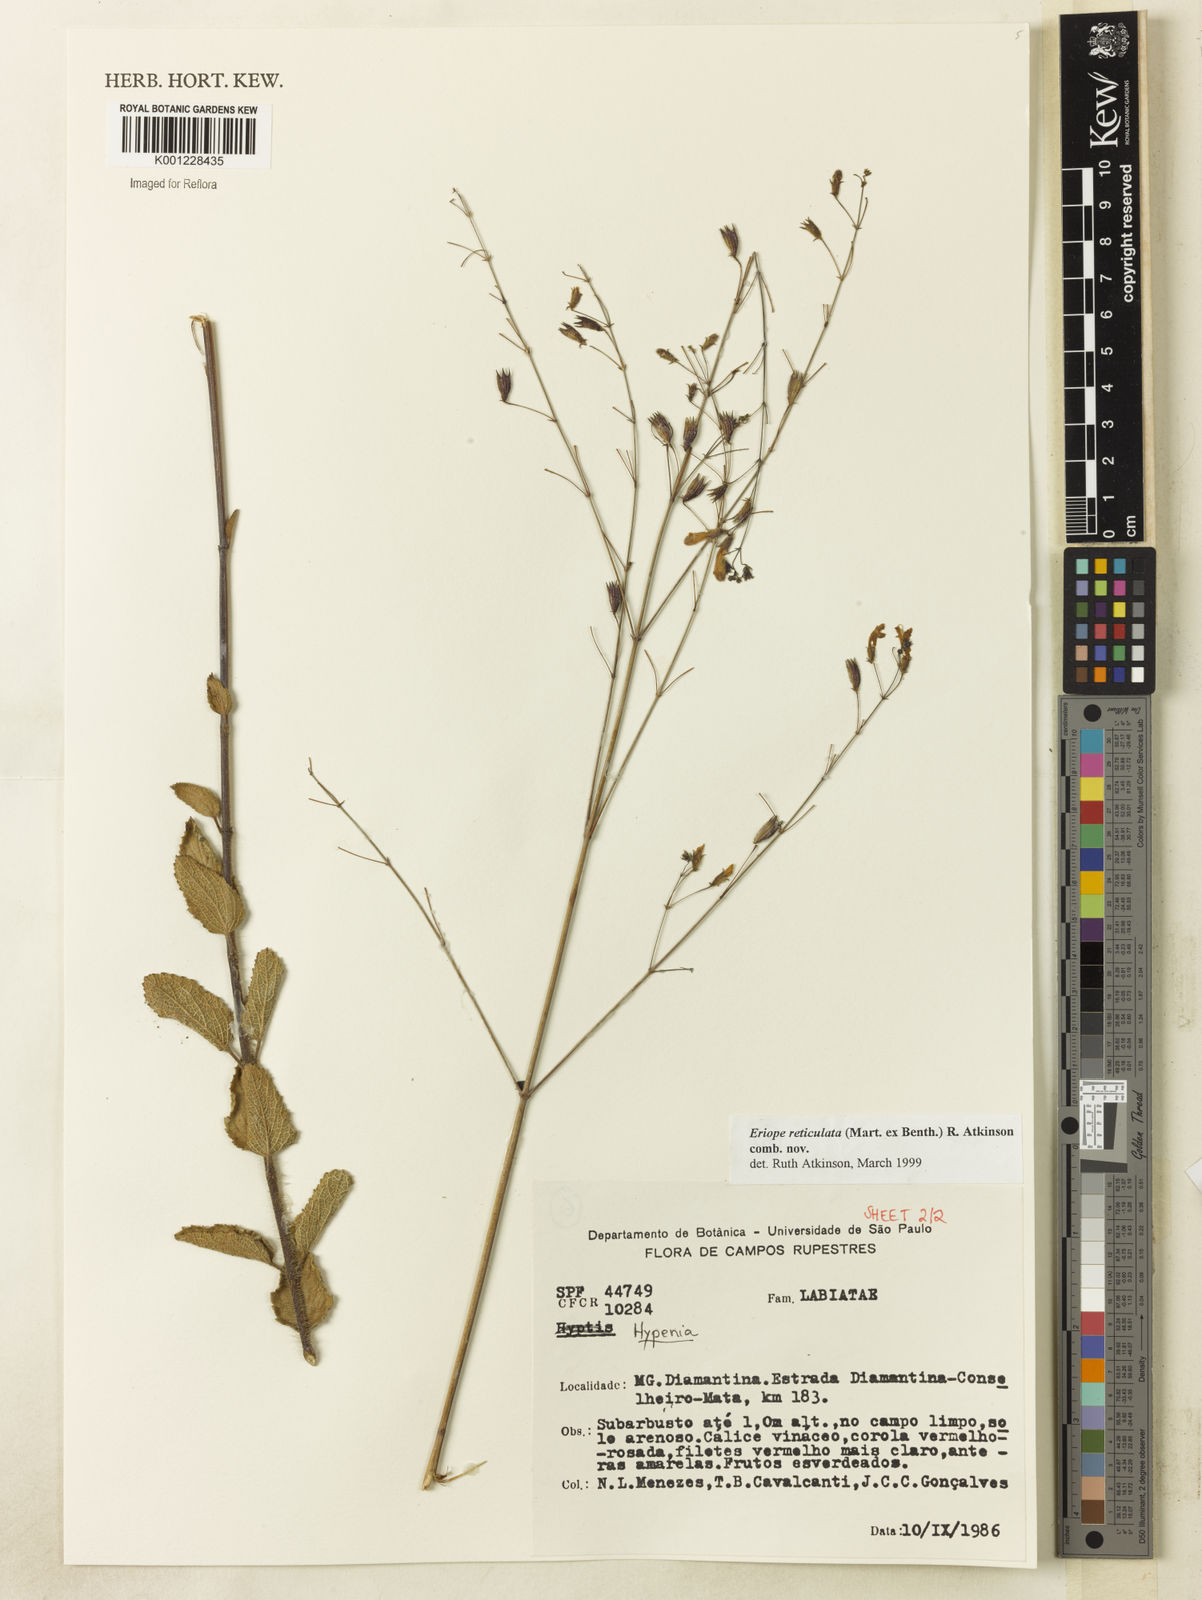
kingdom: Plantae
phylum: Tracheophyta
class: Magnoliopsida
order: Lamiales
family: Lamiaceae
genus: Hypenia
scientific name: Hypenia reticulata
